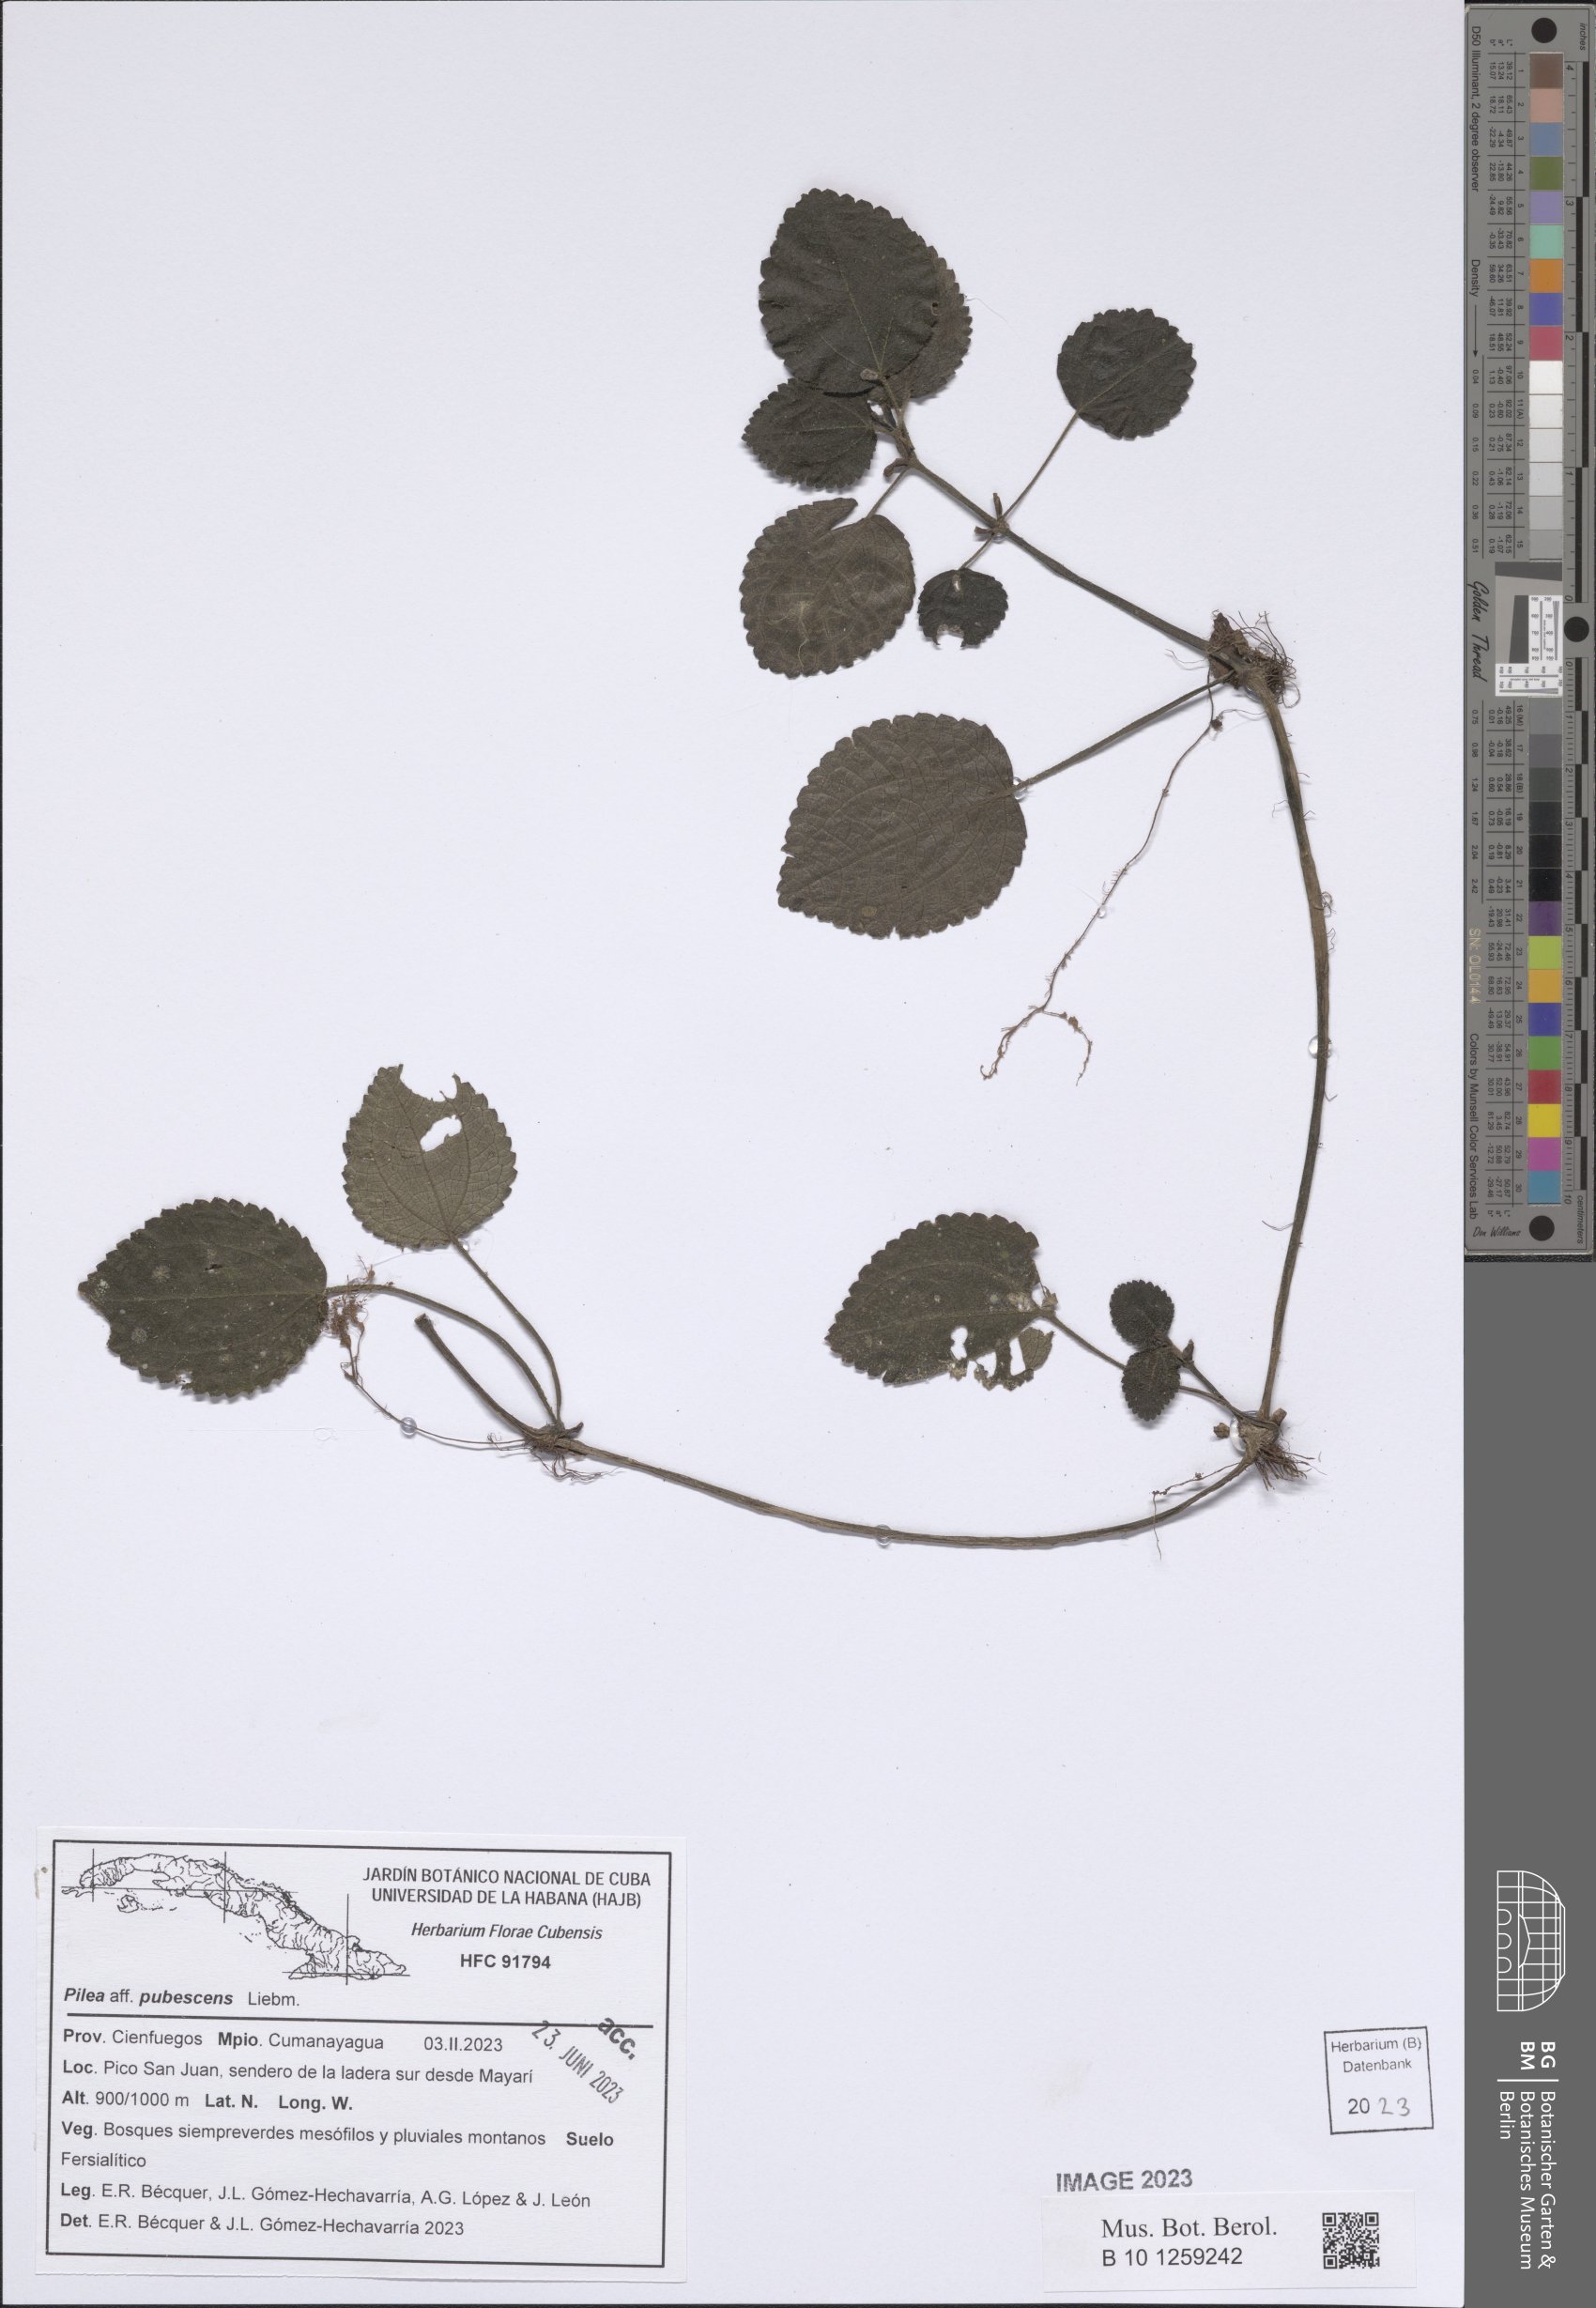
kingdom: Plantae
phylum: Tracheophyta
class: Magnoliopsida
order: Rosales
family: Urticaceae
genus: Pilea
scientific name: Pilea pubescens
